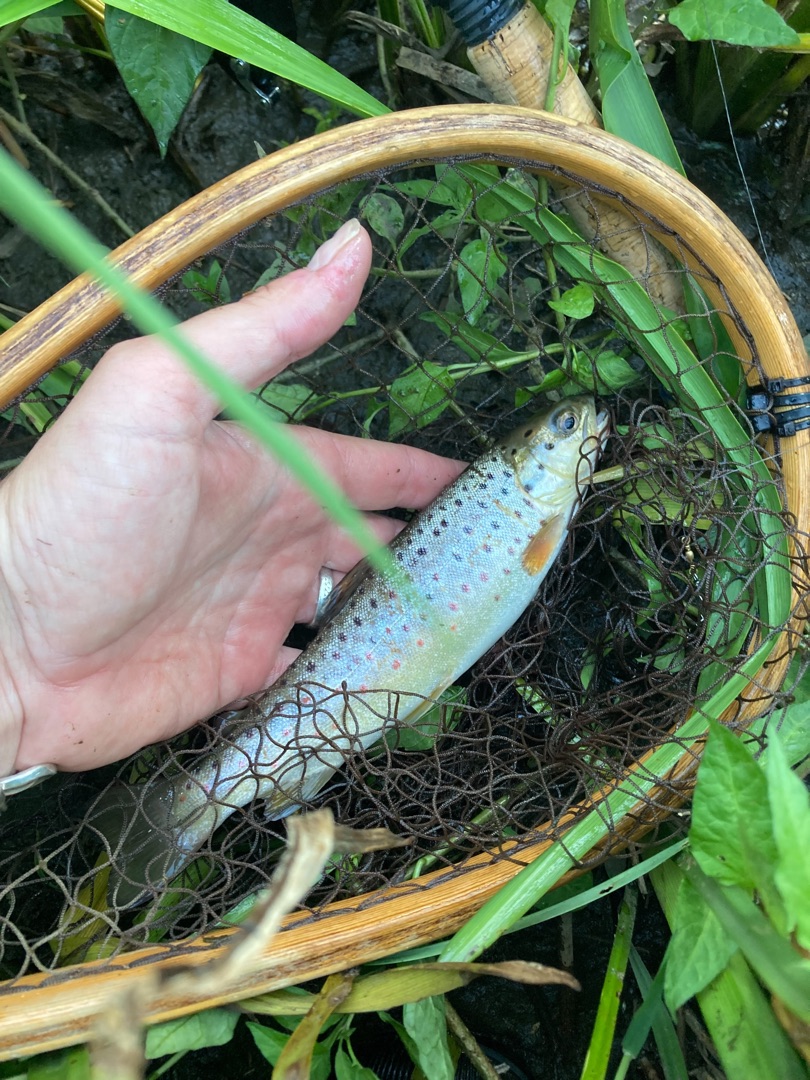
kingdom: Animalia
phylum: Chordata
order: Salmoniformes
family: Salmonidae
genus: Salmo
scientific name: Salmo trutta
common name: Ørred
